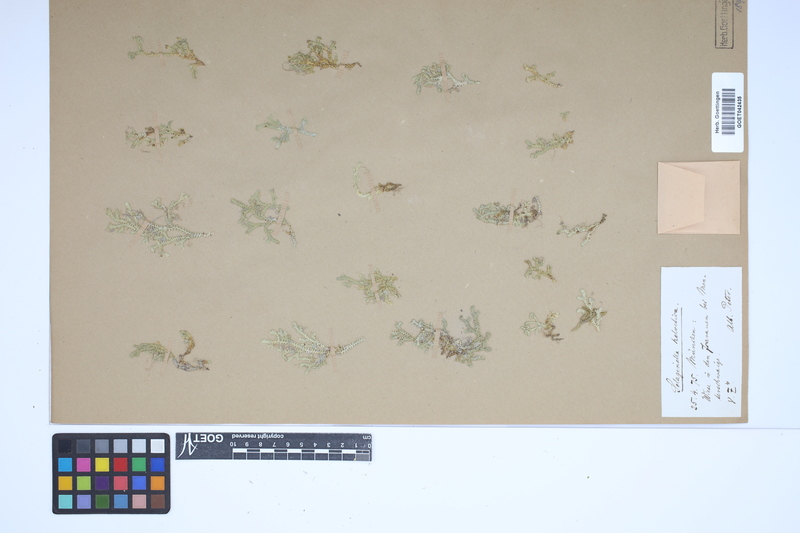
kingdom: Plantae
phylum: Tracheophyta
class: Lycopodiopsida
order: Selaginellales
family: Selaginellaceae
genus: Selaginella
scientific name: Selaginella helvetica
